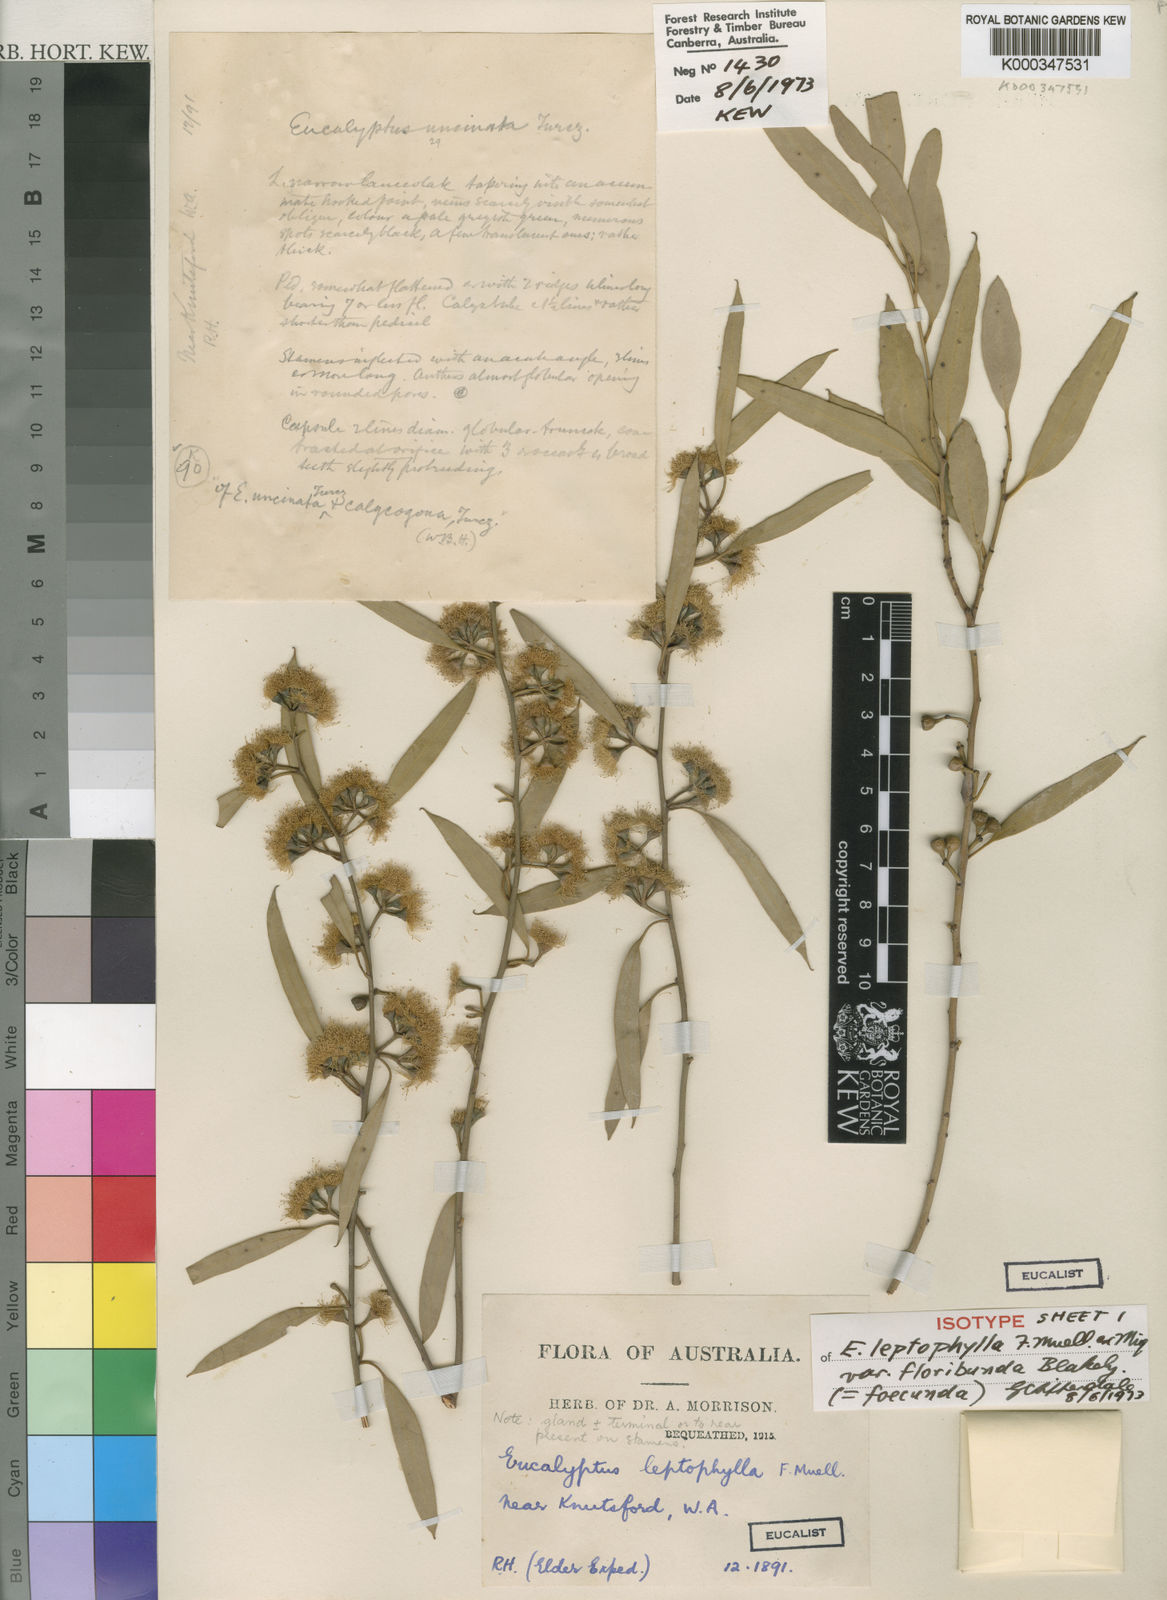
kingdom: Plantae
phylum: Tracheophyta
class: Magnoliopsida
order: Myrtales
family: Myrtaceae
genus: Eucalyptus
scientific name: Eucalyptus foecunda
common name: Freemantle mallee
